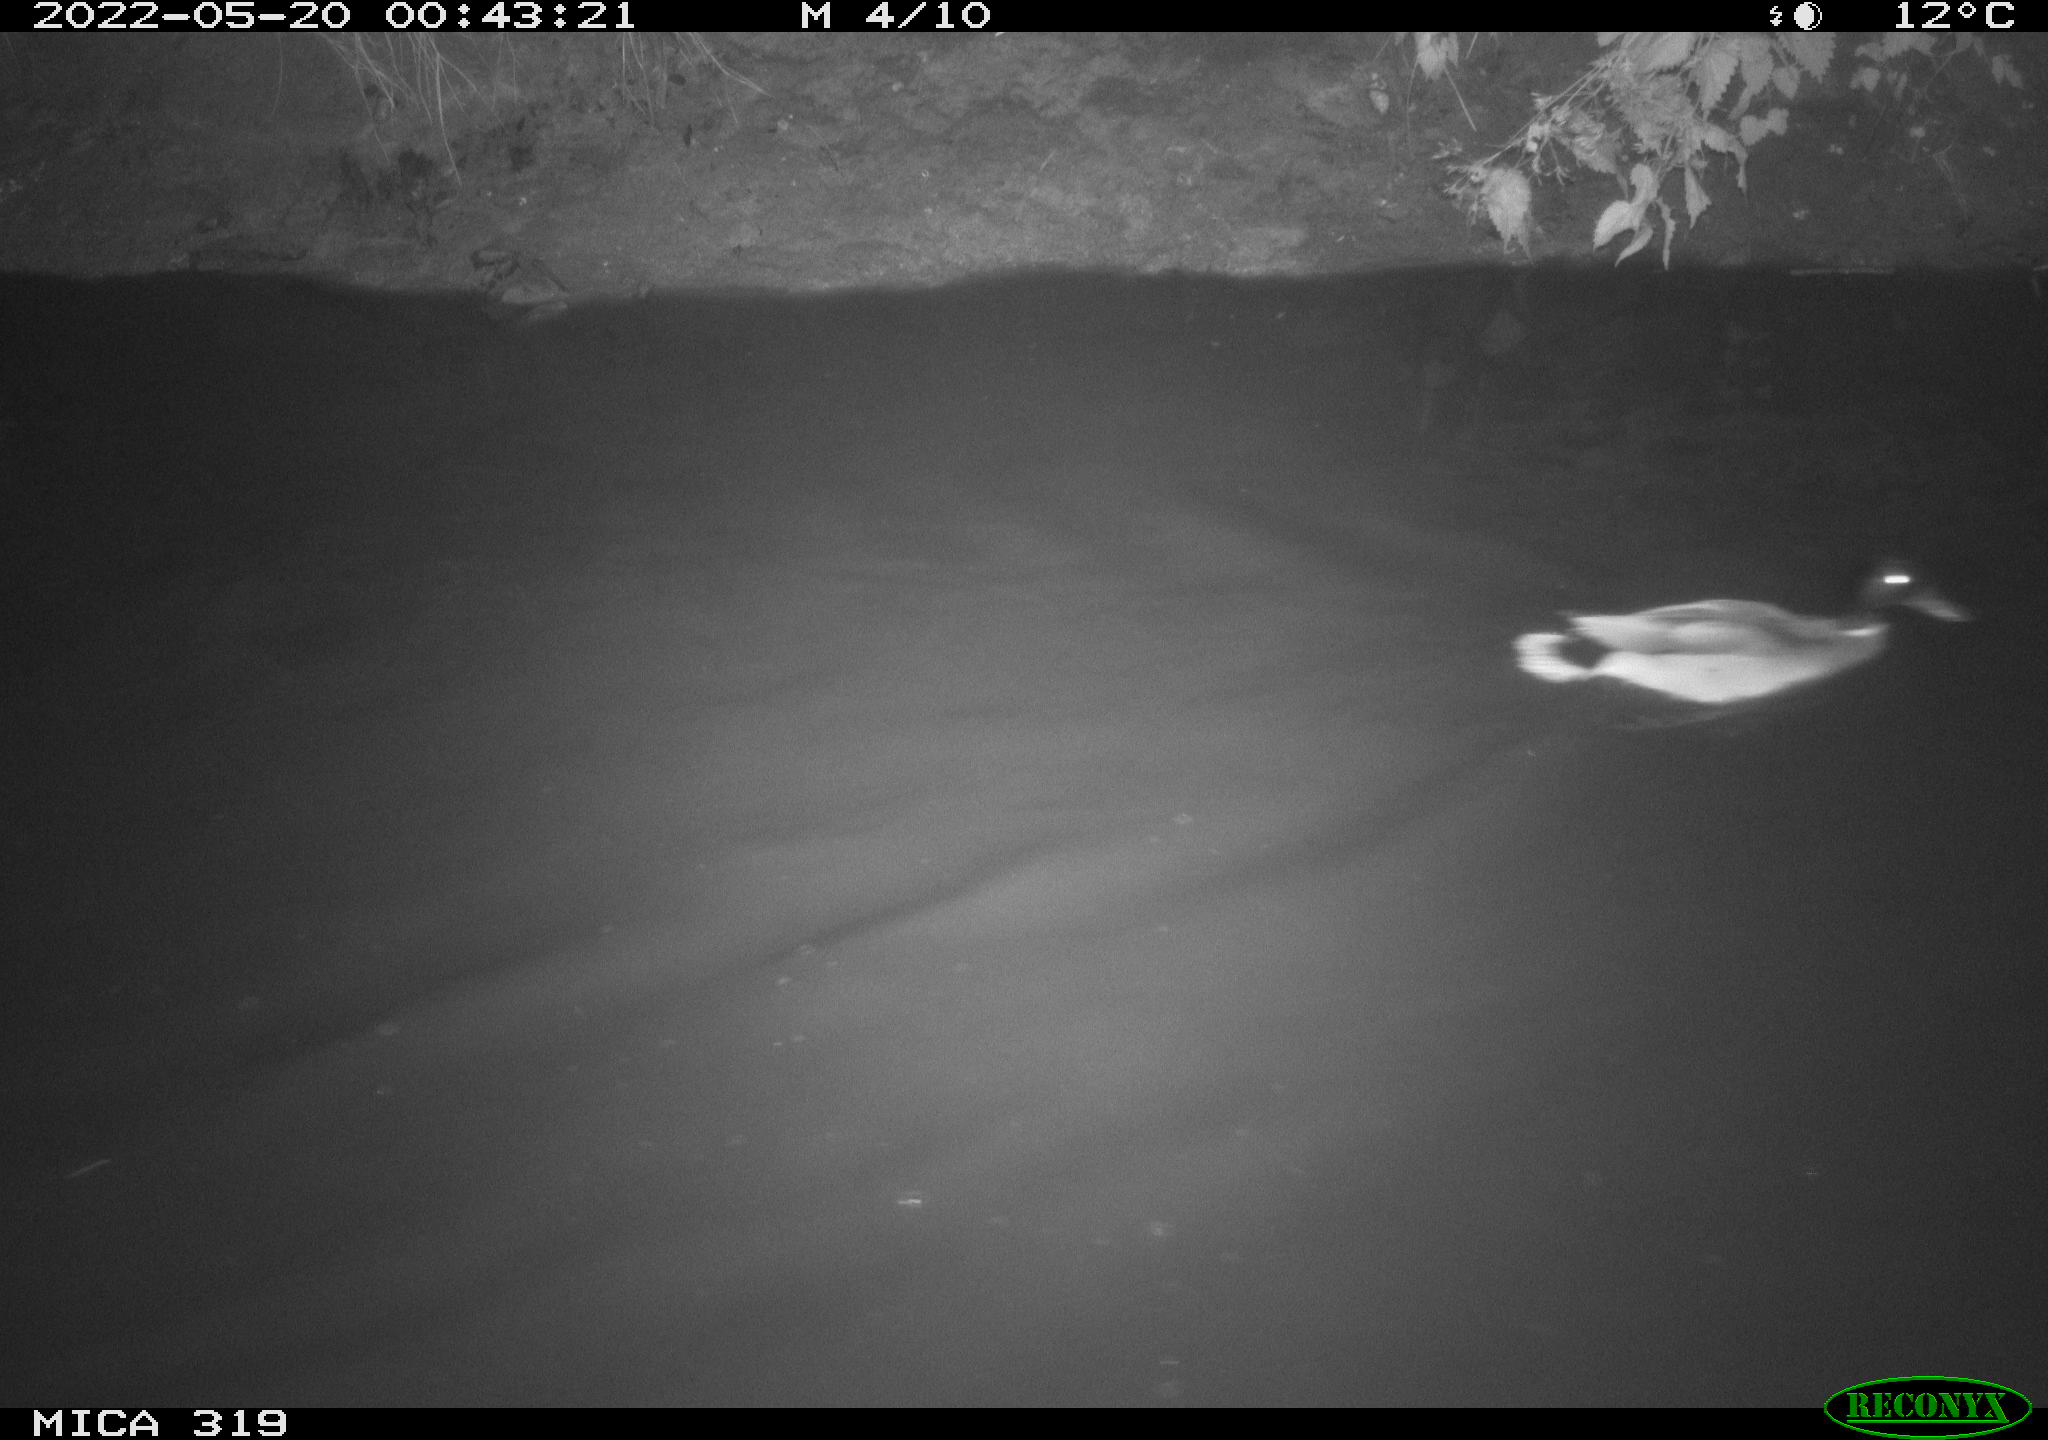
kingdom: Animalia
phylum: Chordata
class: Aves
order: Anseriformes
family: Anatidae
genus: Anas
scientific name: Anas
